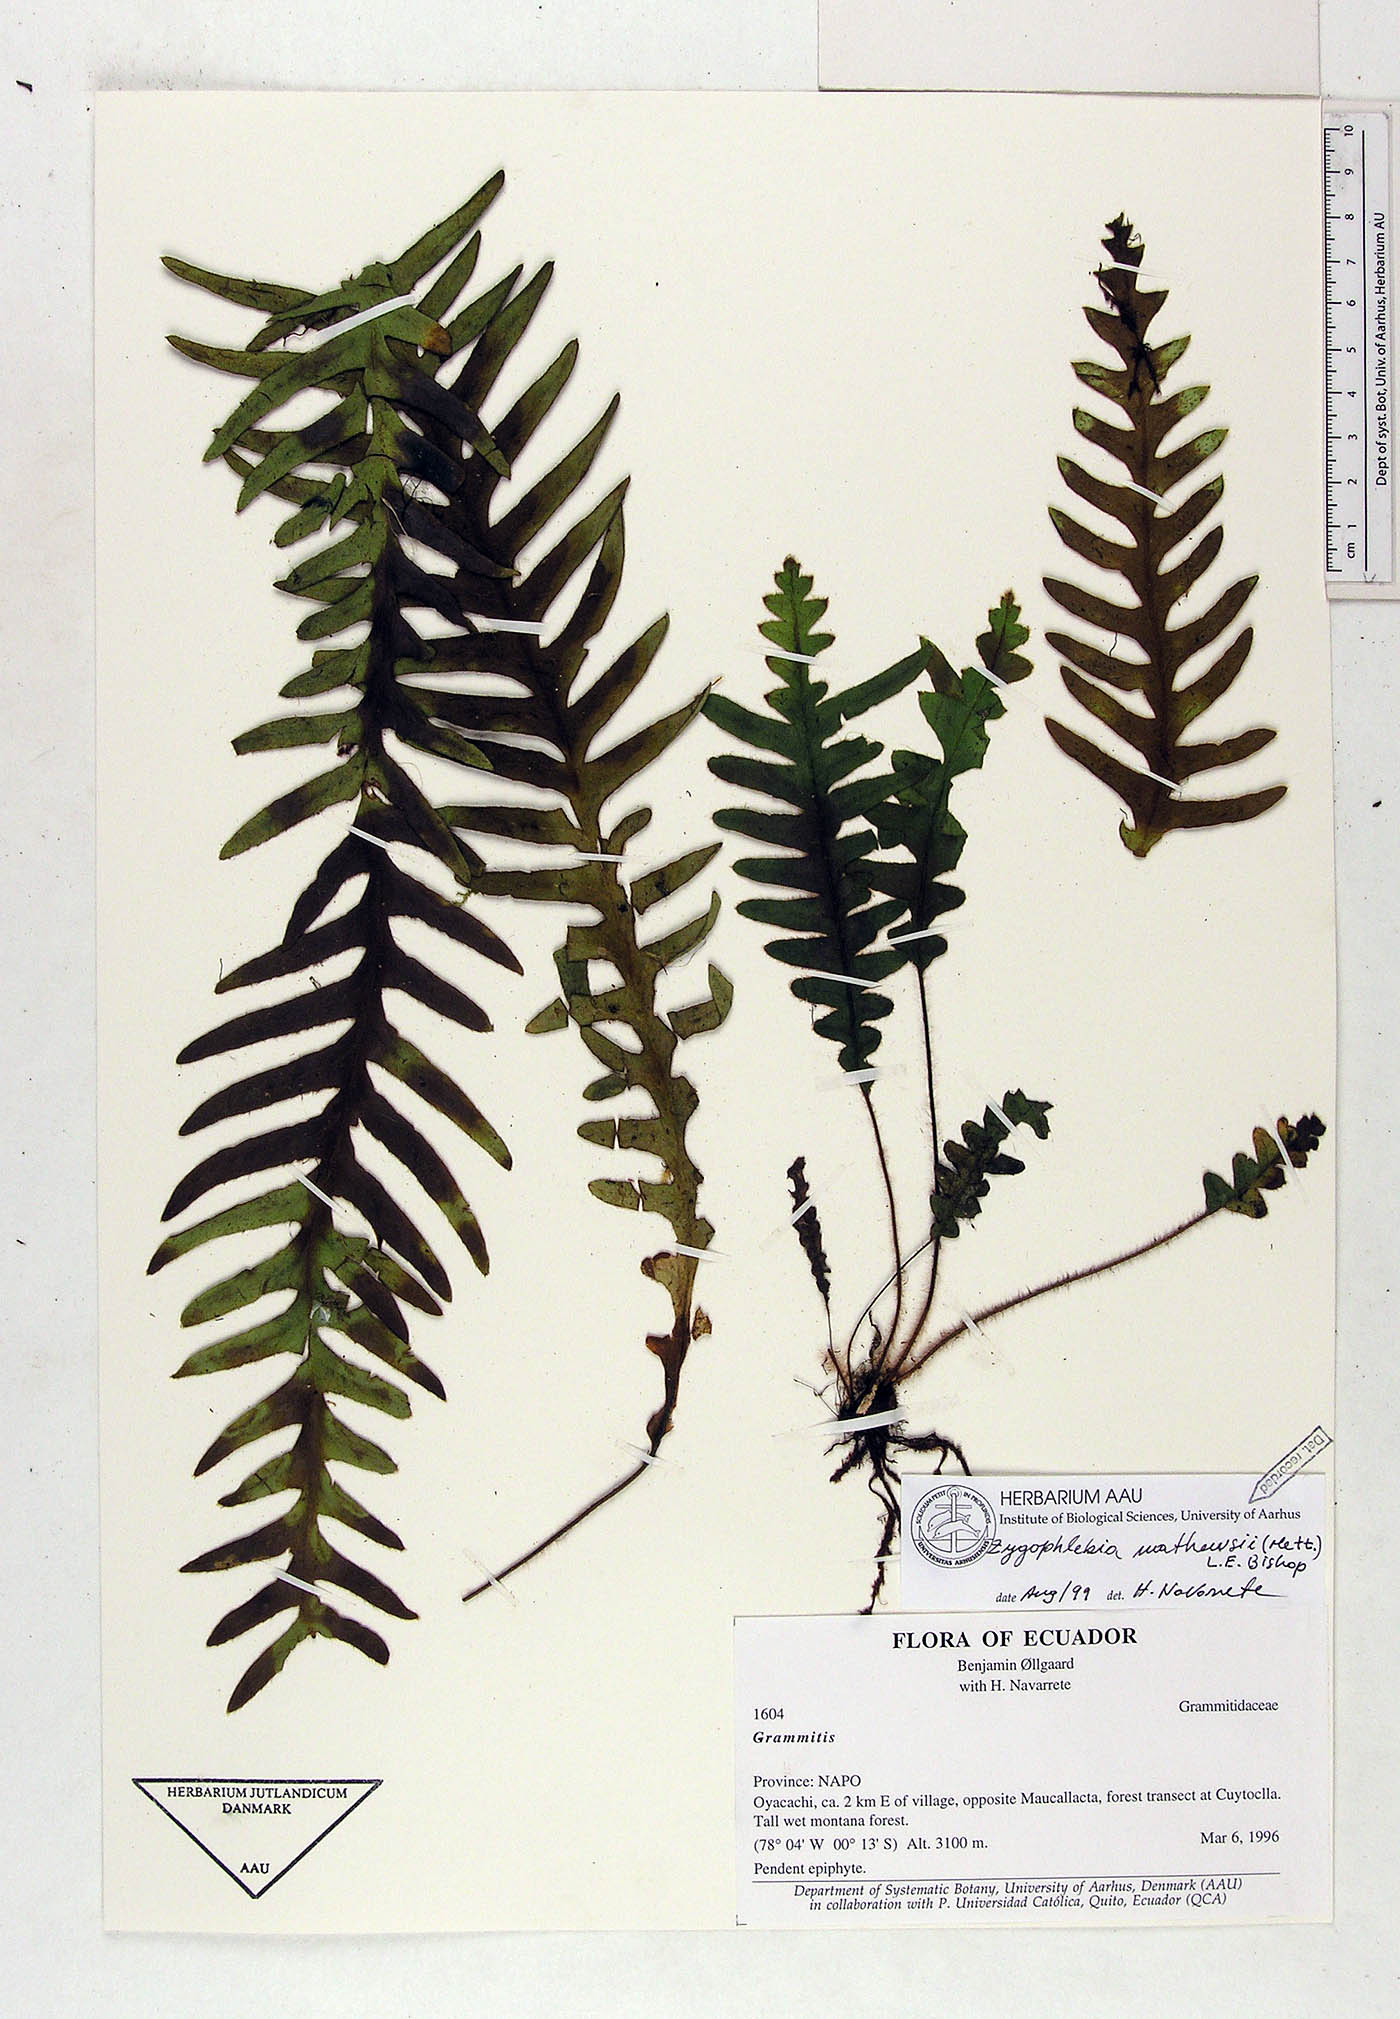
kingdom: Plantae
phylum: Tracheophyta
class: Polypodiopsida
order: Polypodiales
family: Polypodiaceae
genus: Enterosora
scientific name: Enterosora mathewsii
